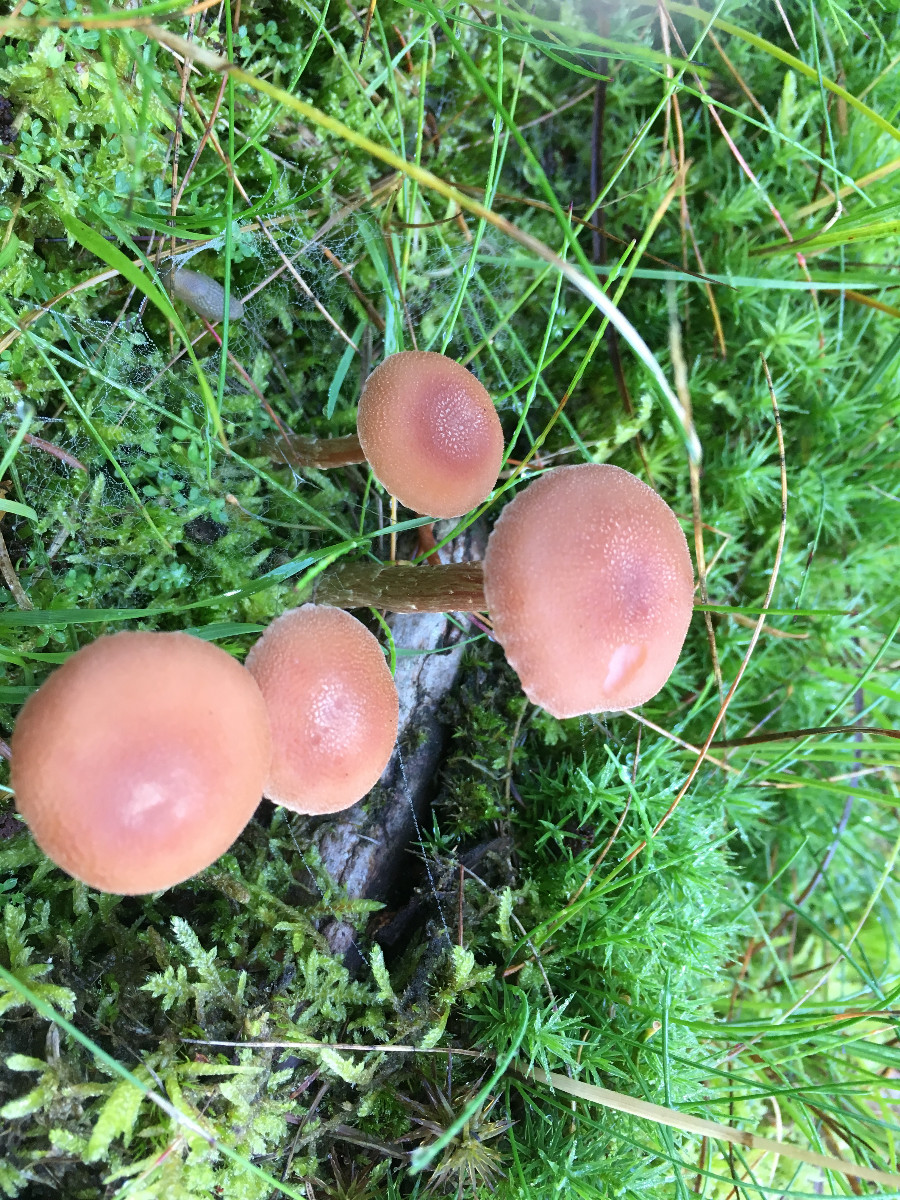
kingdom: Fungi
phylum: Basidiomycota
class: Agaricomycetes
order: Agaricales
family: Hydnangiaceae
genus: Laccaria
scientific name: Laccaria bicolor
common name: tvefarvet ametysthat
